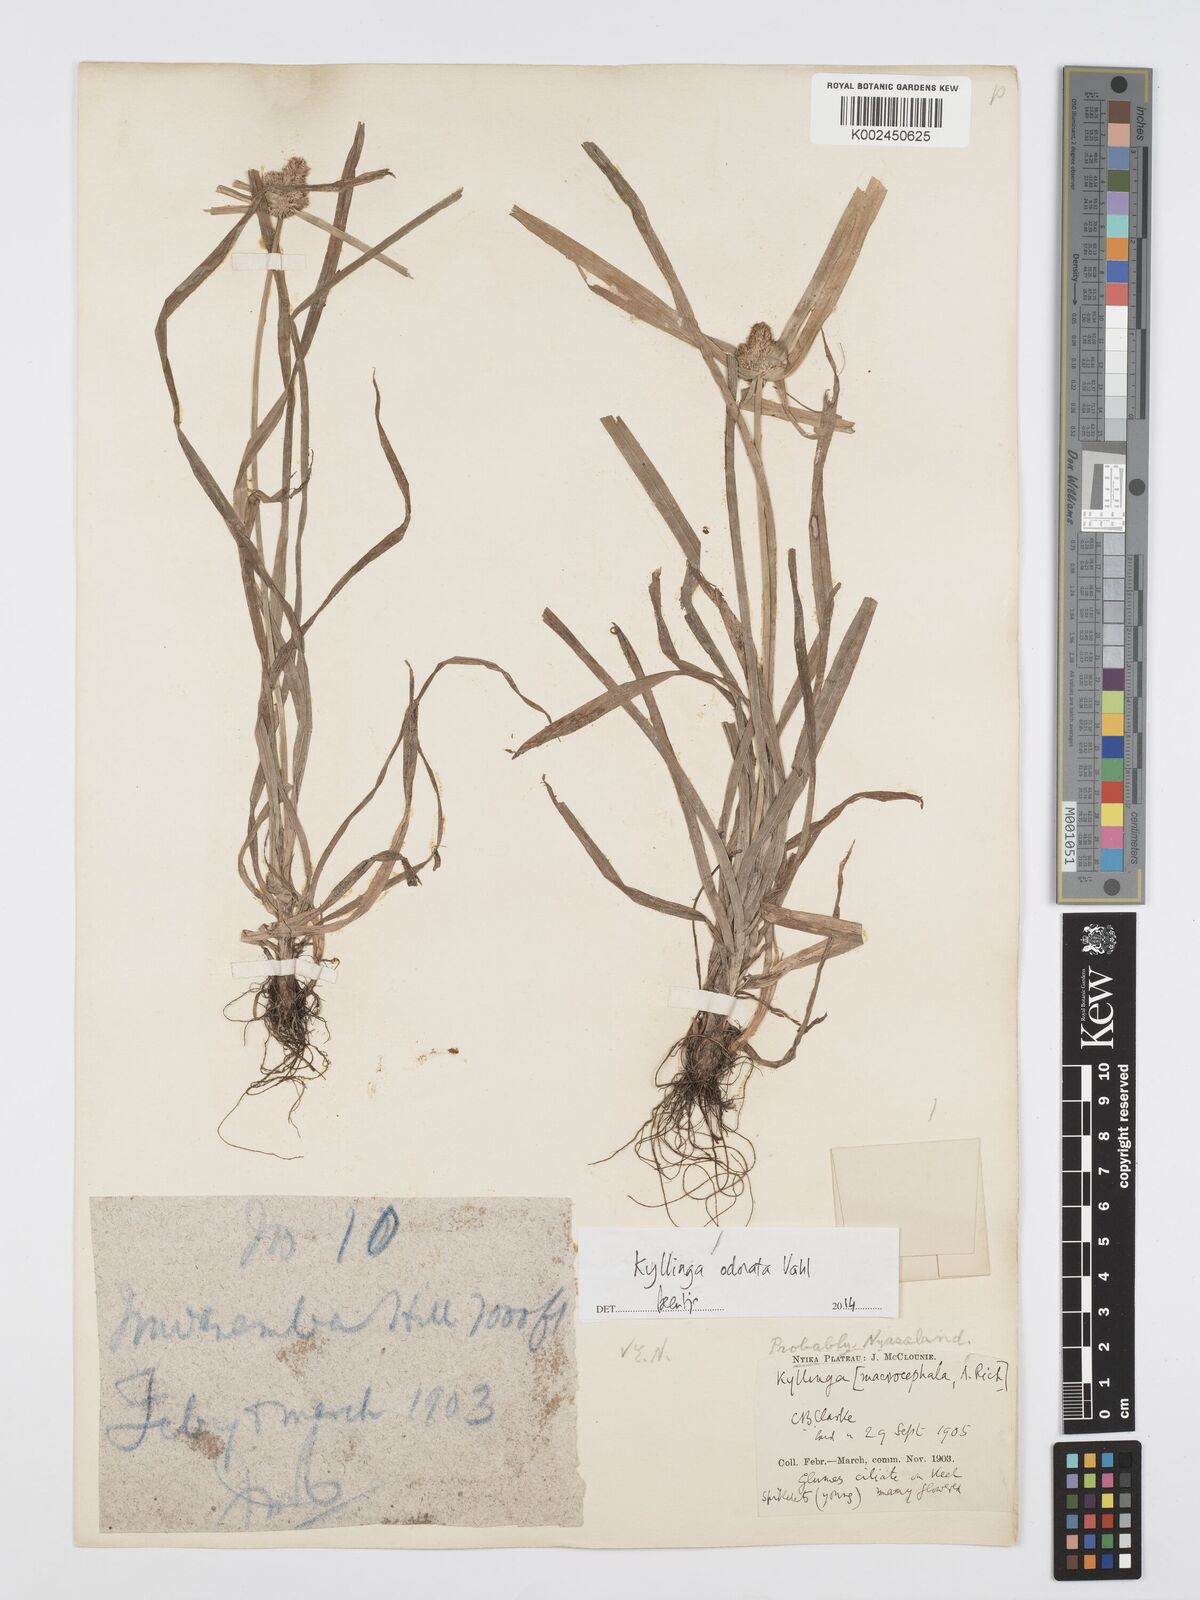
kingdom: Plantae
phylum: Tracheophyta
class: Liliopsida
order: Poales
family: Cyperaceae
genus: Cyperus
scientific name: Cyperus
